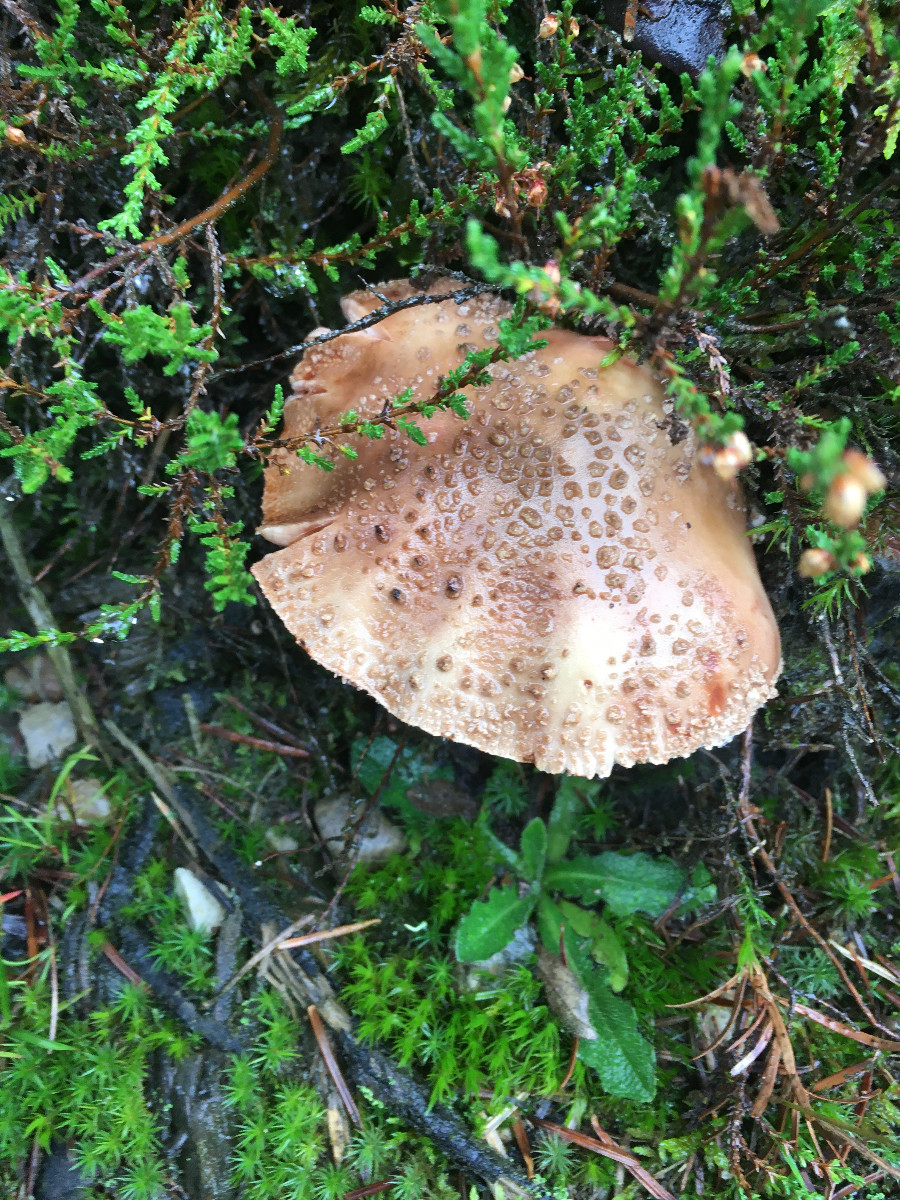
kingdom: Fungi
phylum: Basidiomycota
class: Agaricomycetes
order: Agaricales
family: Amanitaceae
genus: Amanita
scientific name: Amanita rubescens
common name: rødmende fluesvamp
